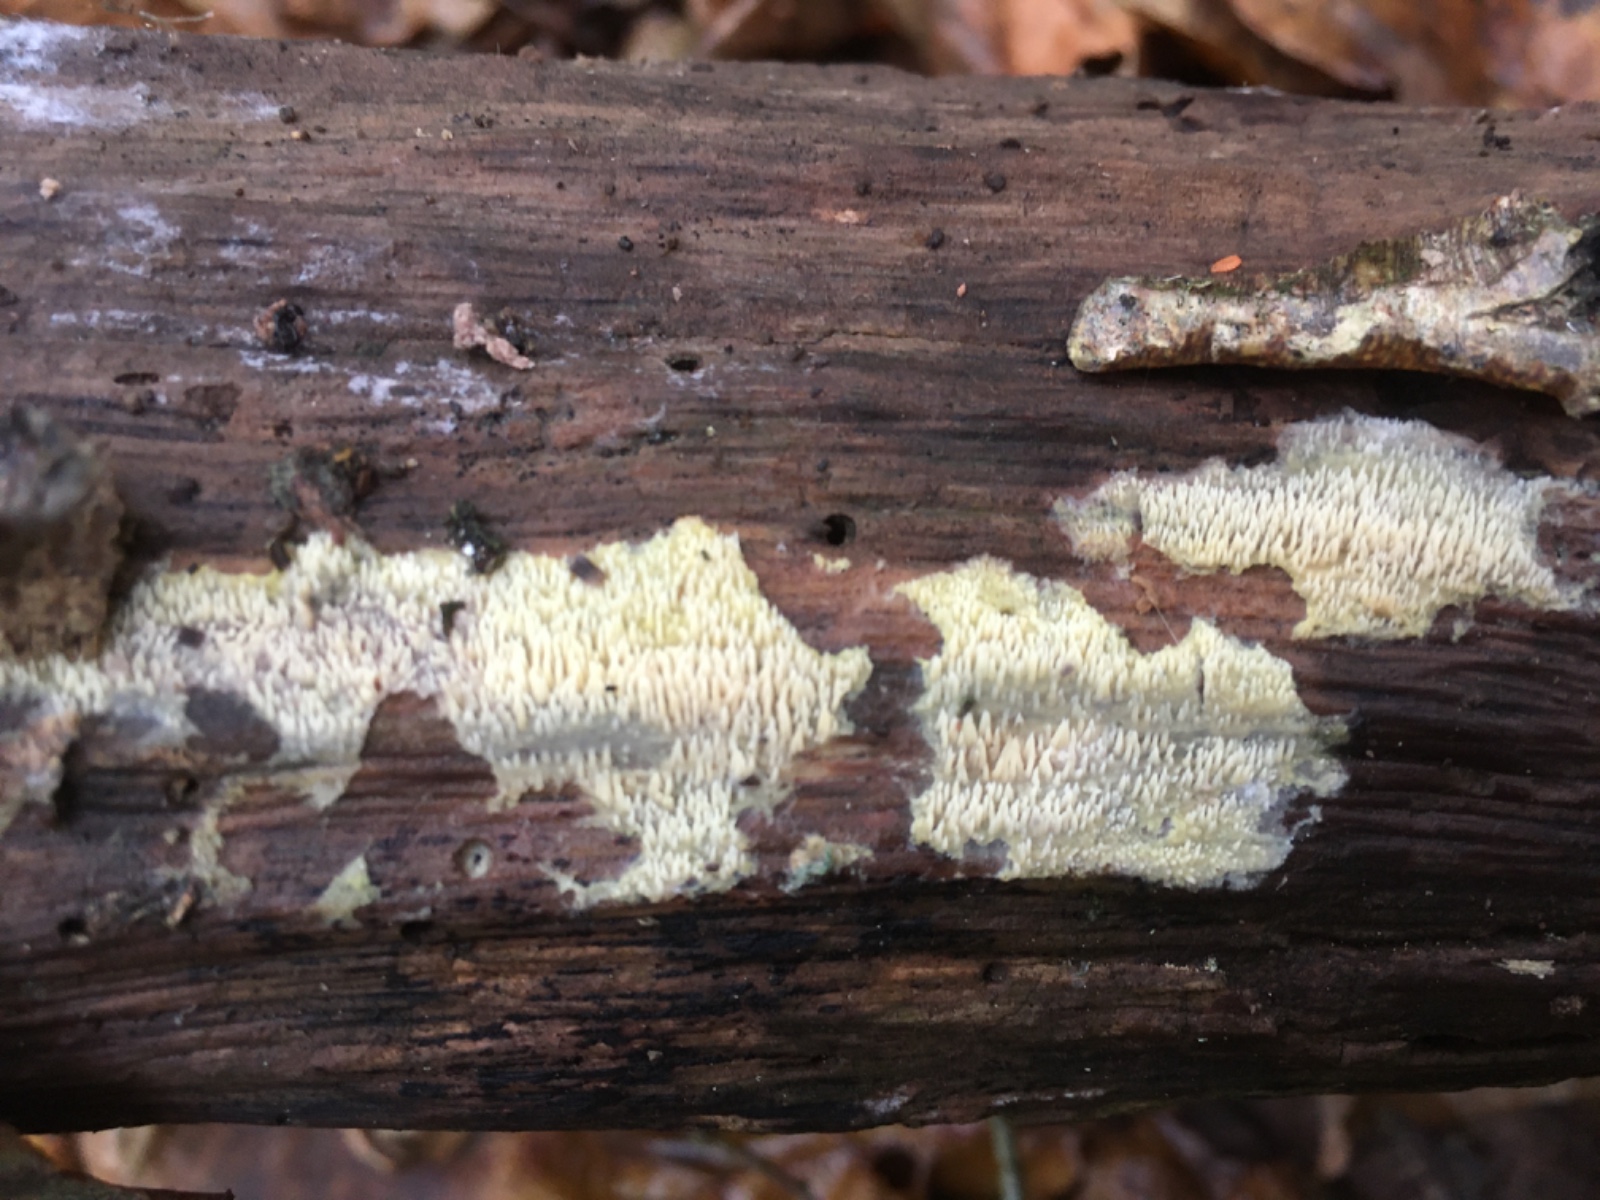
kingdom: Fungi
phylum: Basidiomycota
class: Agaricomycetes
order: Polyporales
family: Meruliaceae
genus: Mycoacia
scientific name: Mycoacia uda
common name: citrongul vokspig
